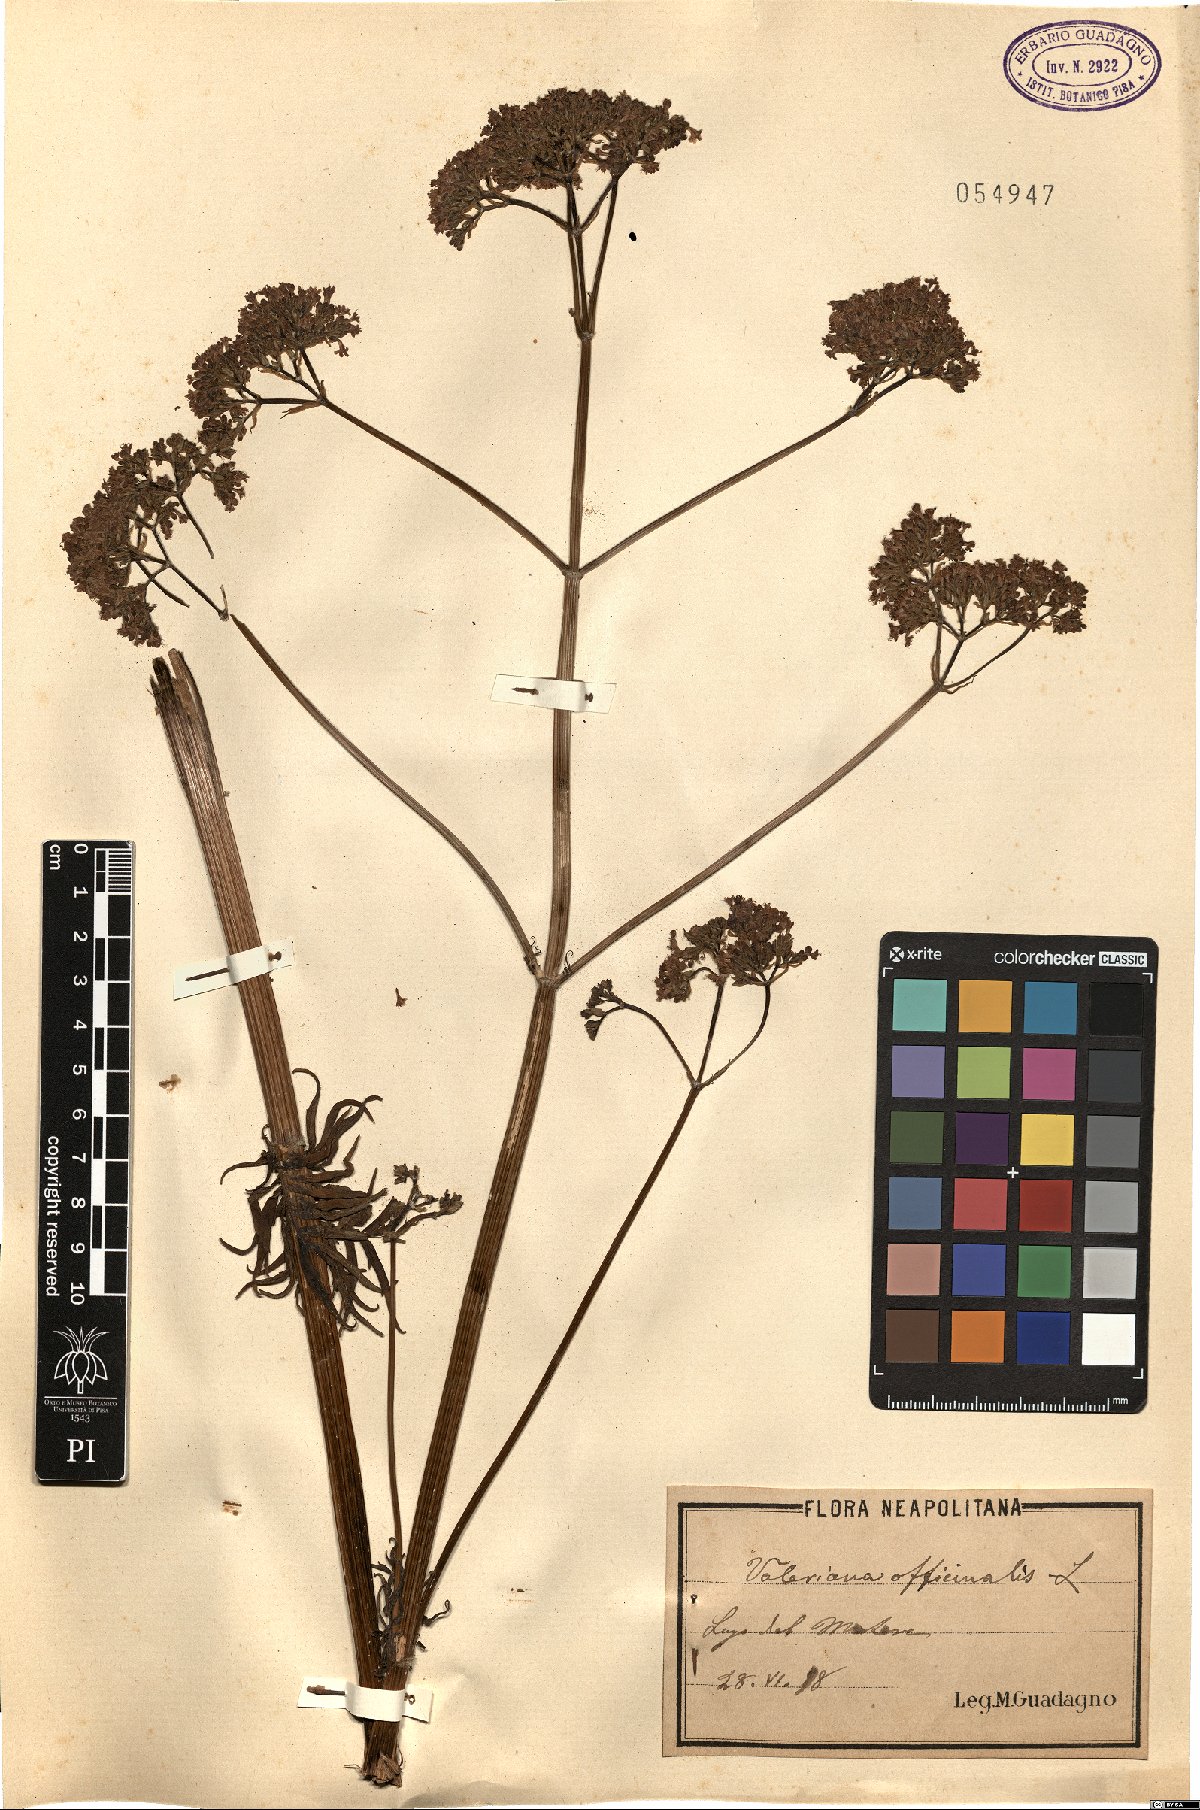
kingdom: Plantae
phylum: Tracheophyta
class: Magnoliopsida
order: Dipsacales
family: Caprifoliaceae
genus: Valeriana
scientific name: Valeriana officinalis
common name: Common valerian
